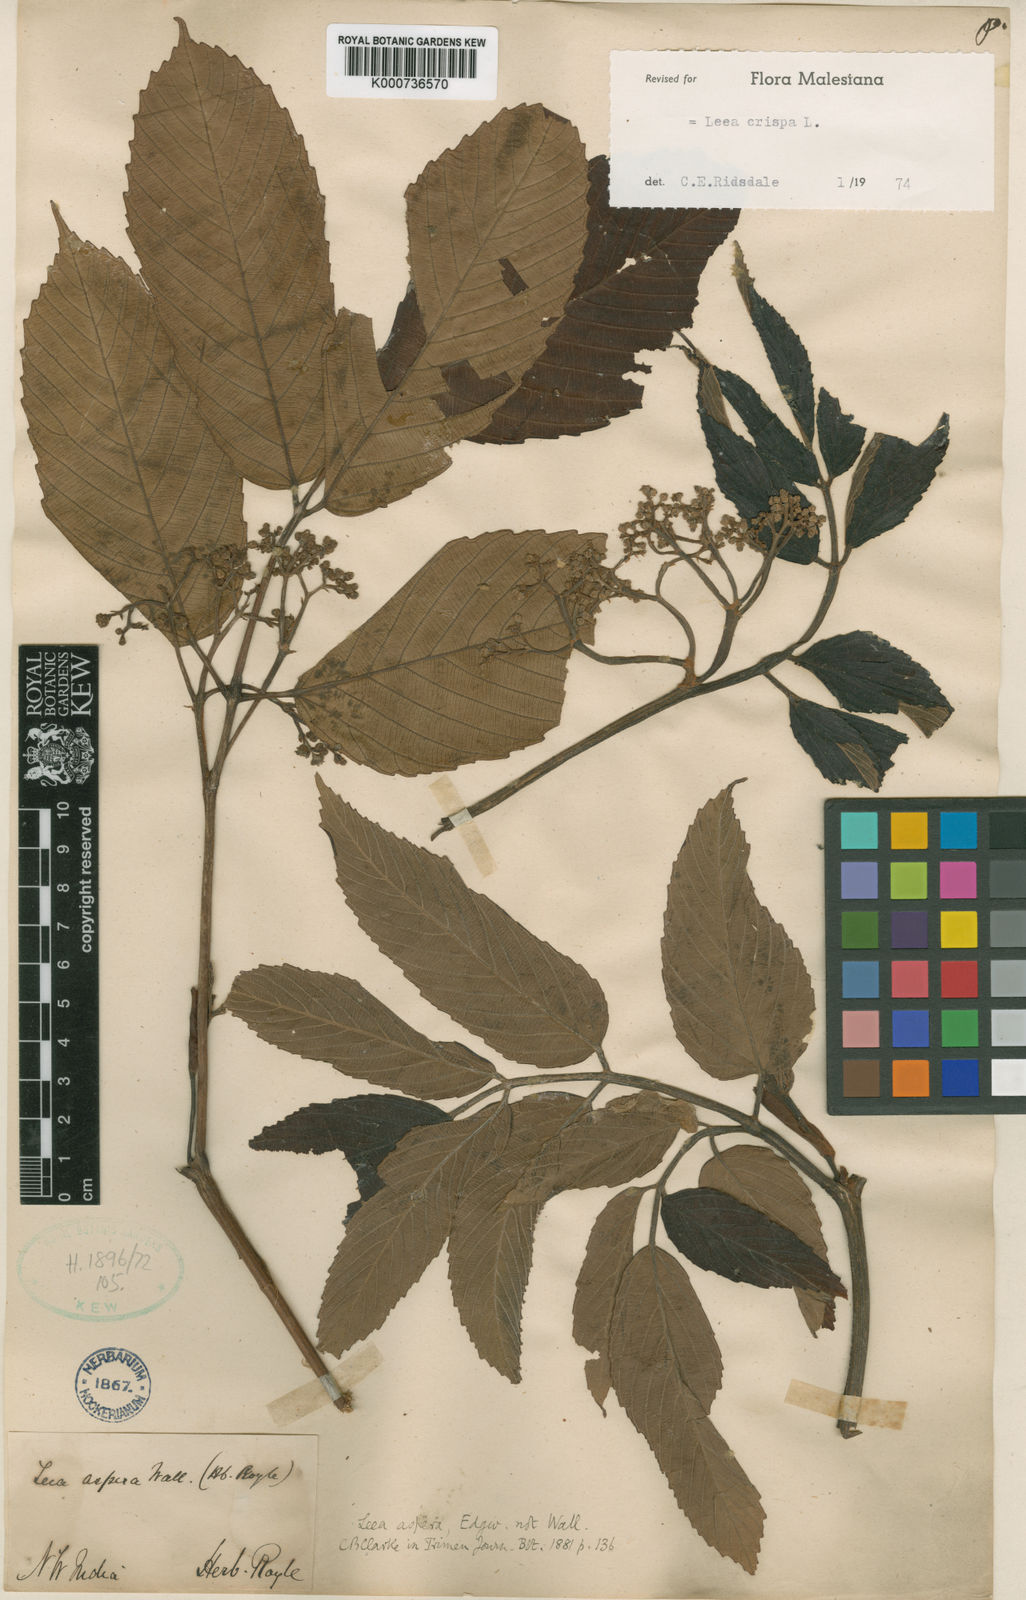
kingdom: Plantae
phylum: Tracheophyta
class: Magnoliopsida
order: Vitales
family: Vitaceae
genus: Leea
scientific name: Leea asiatica
